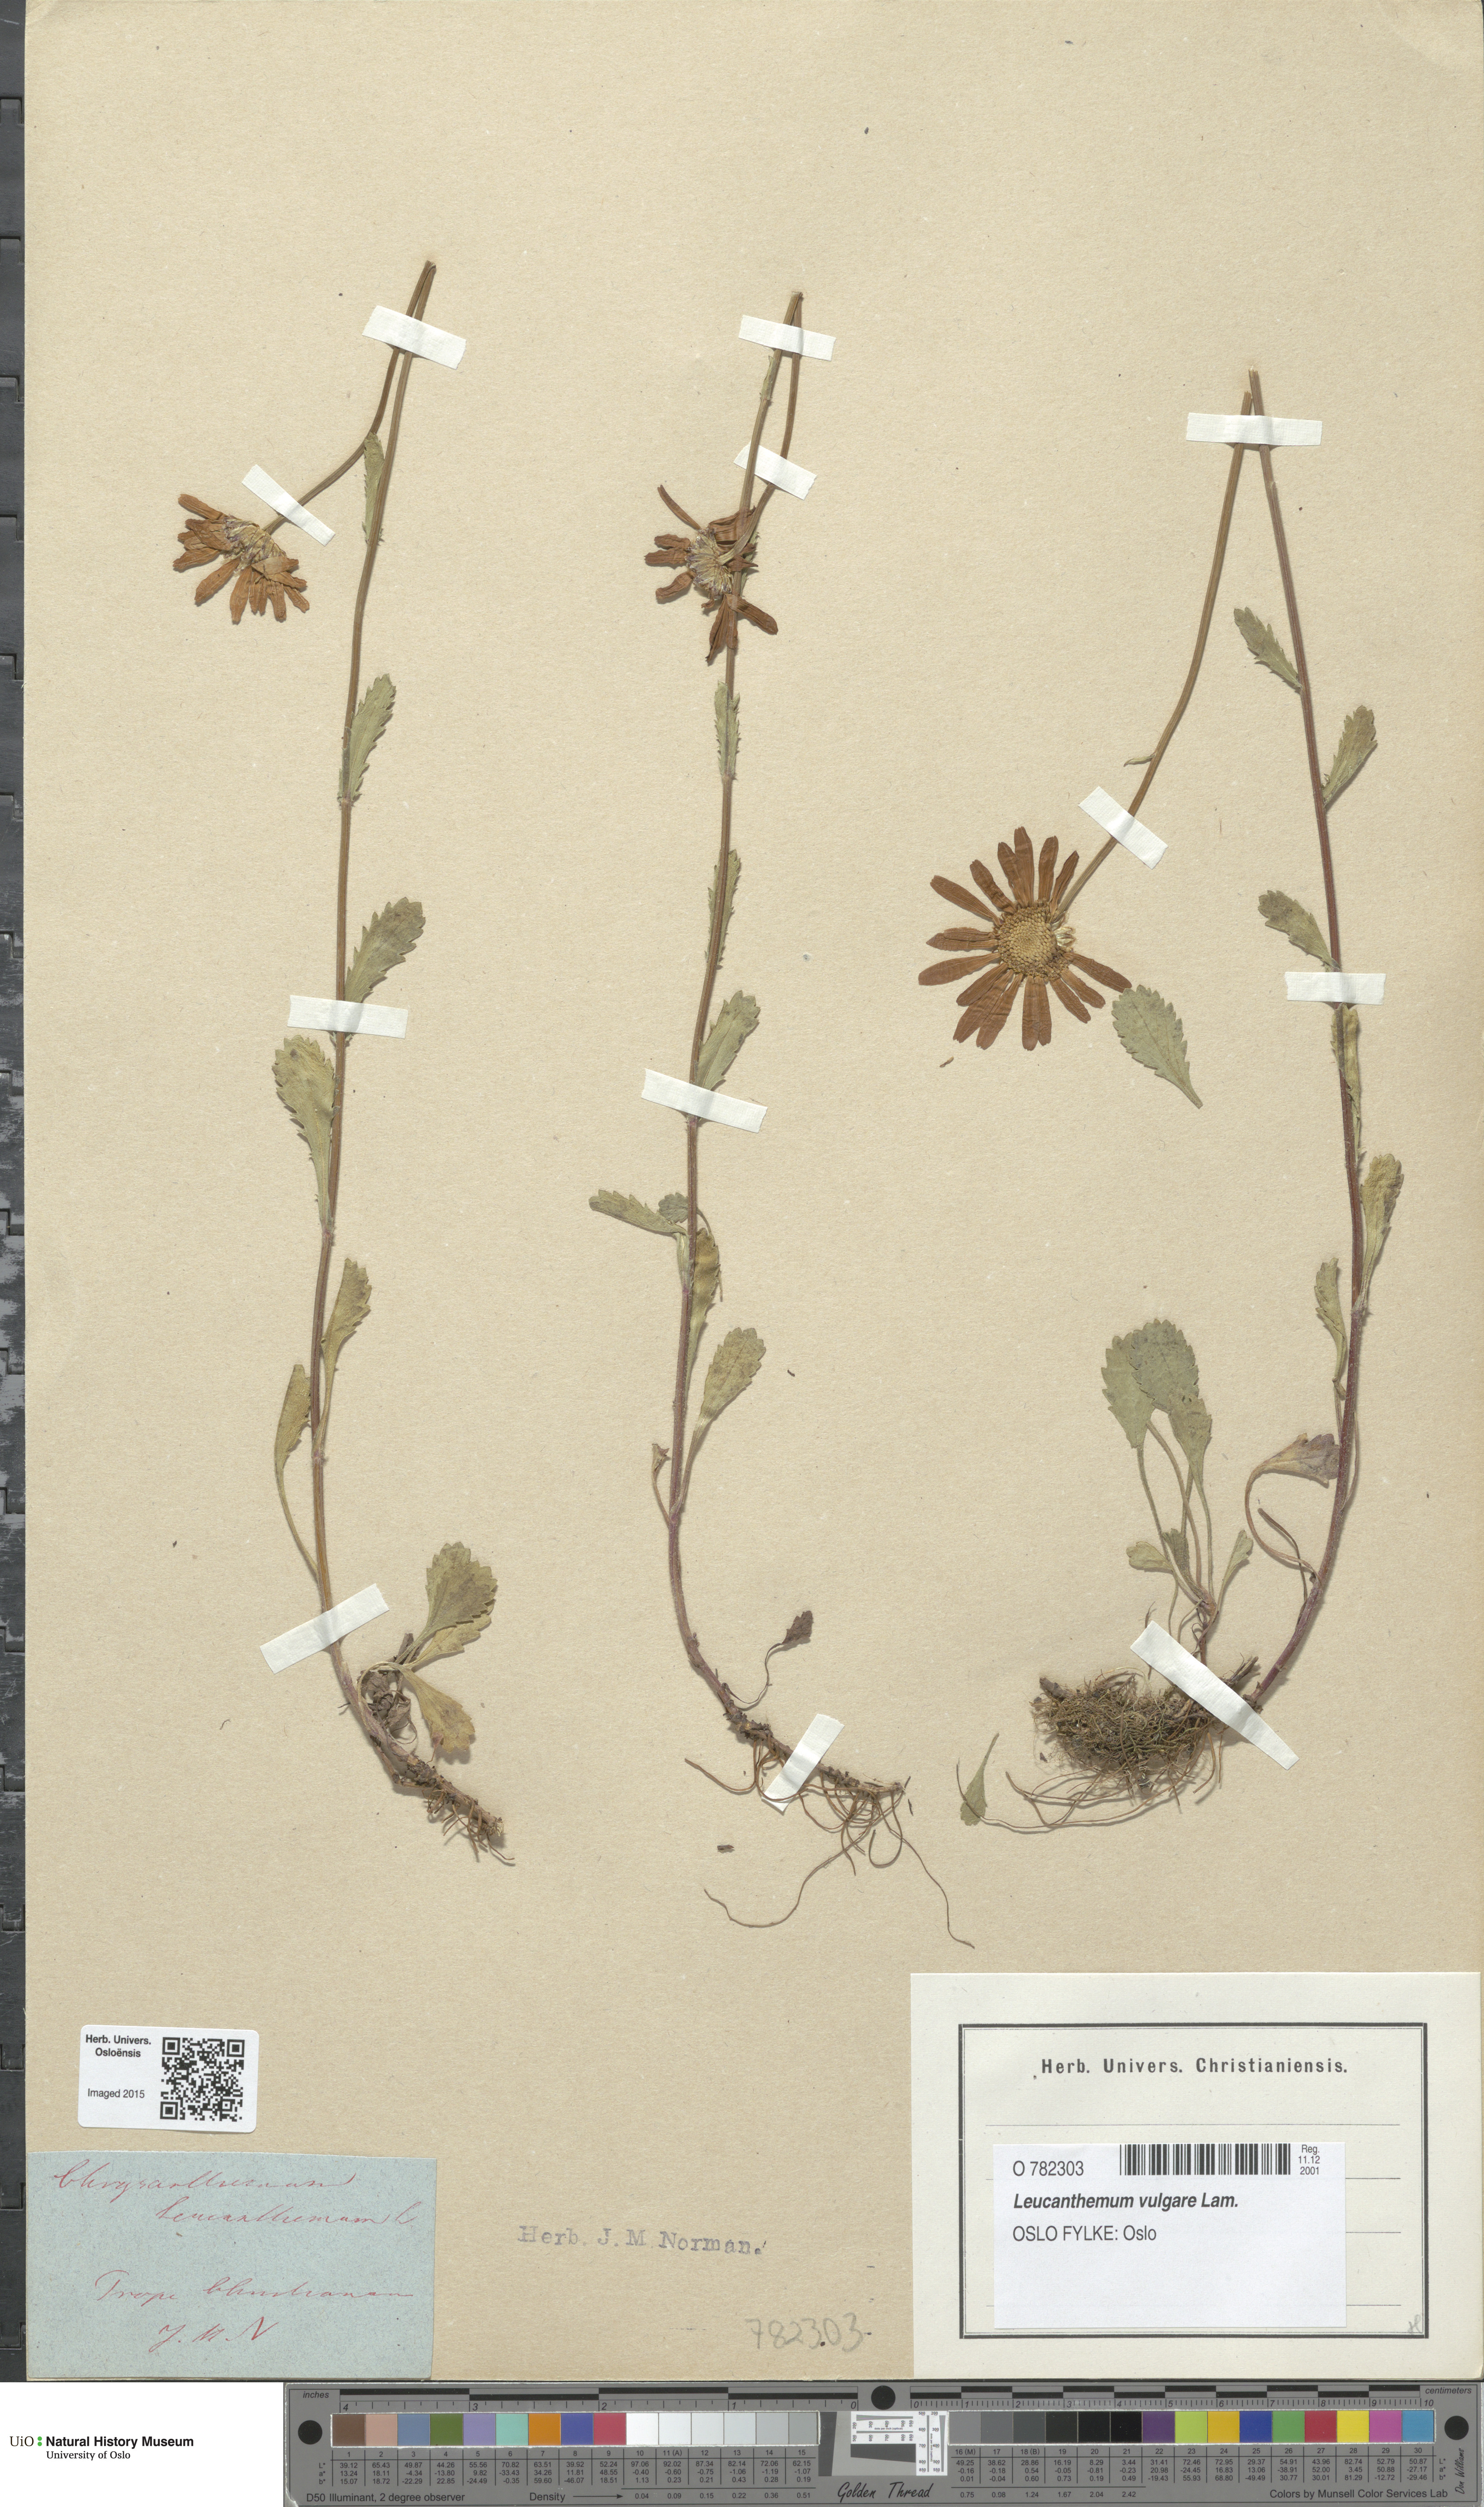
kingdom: Plantae
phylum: Tracheophyta
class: Magnoliopsida
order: Asterales
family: Asteraceae
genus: Leucanthemum
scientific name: Leucanthemum vulgare
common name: Oxeye daisy
